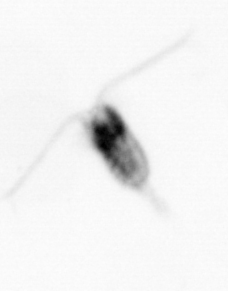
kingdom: Animalia
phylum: Arthropoda
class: Copepoda
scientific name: Copepoda
